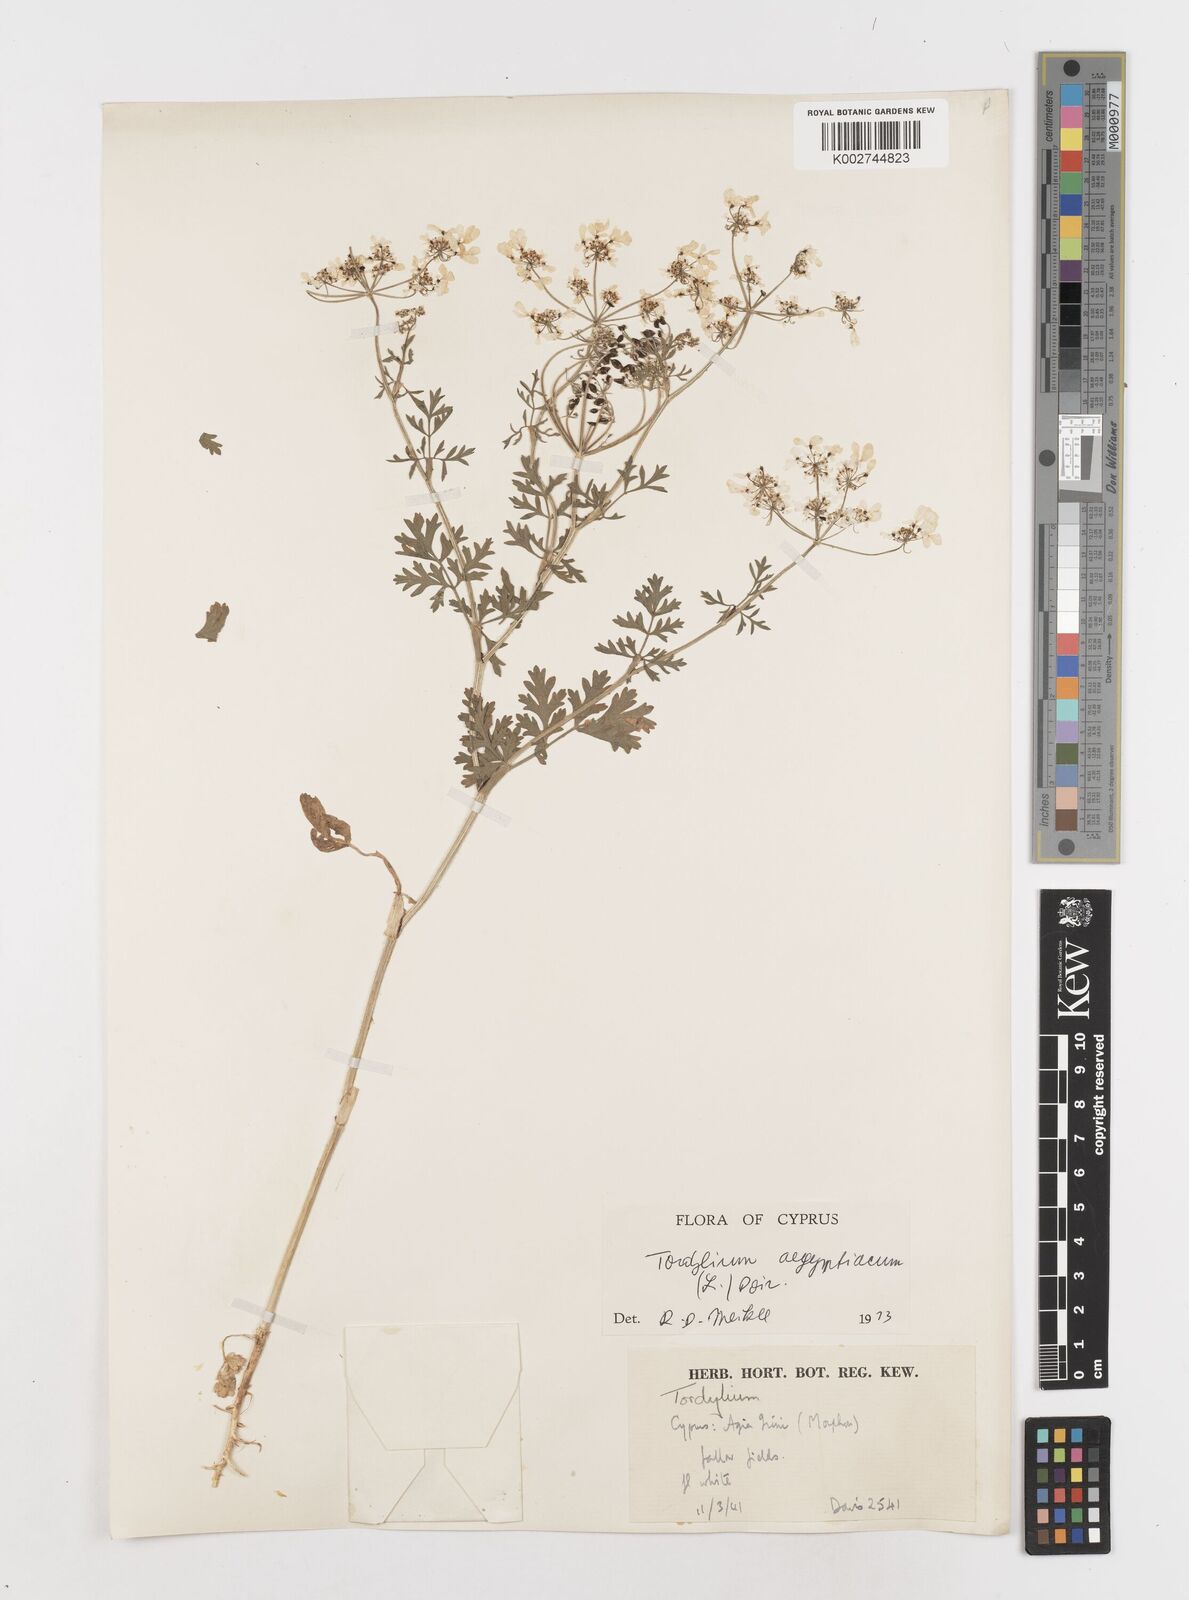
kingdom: Plantae
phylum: Tracheophyta
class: Magnoliopsida
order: Apiales
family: Apiaceae
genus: Tordylium
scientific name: Tordylium aegyptiacum
